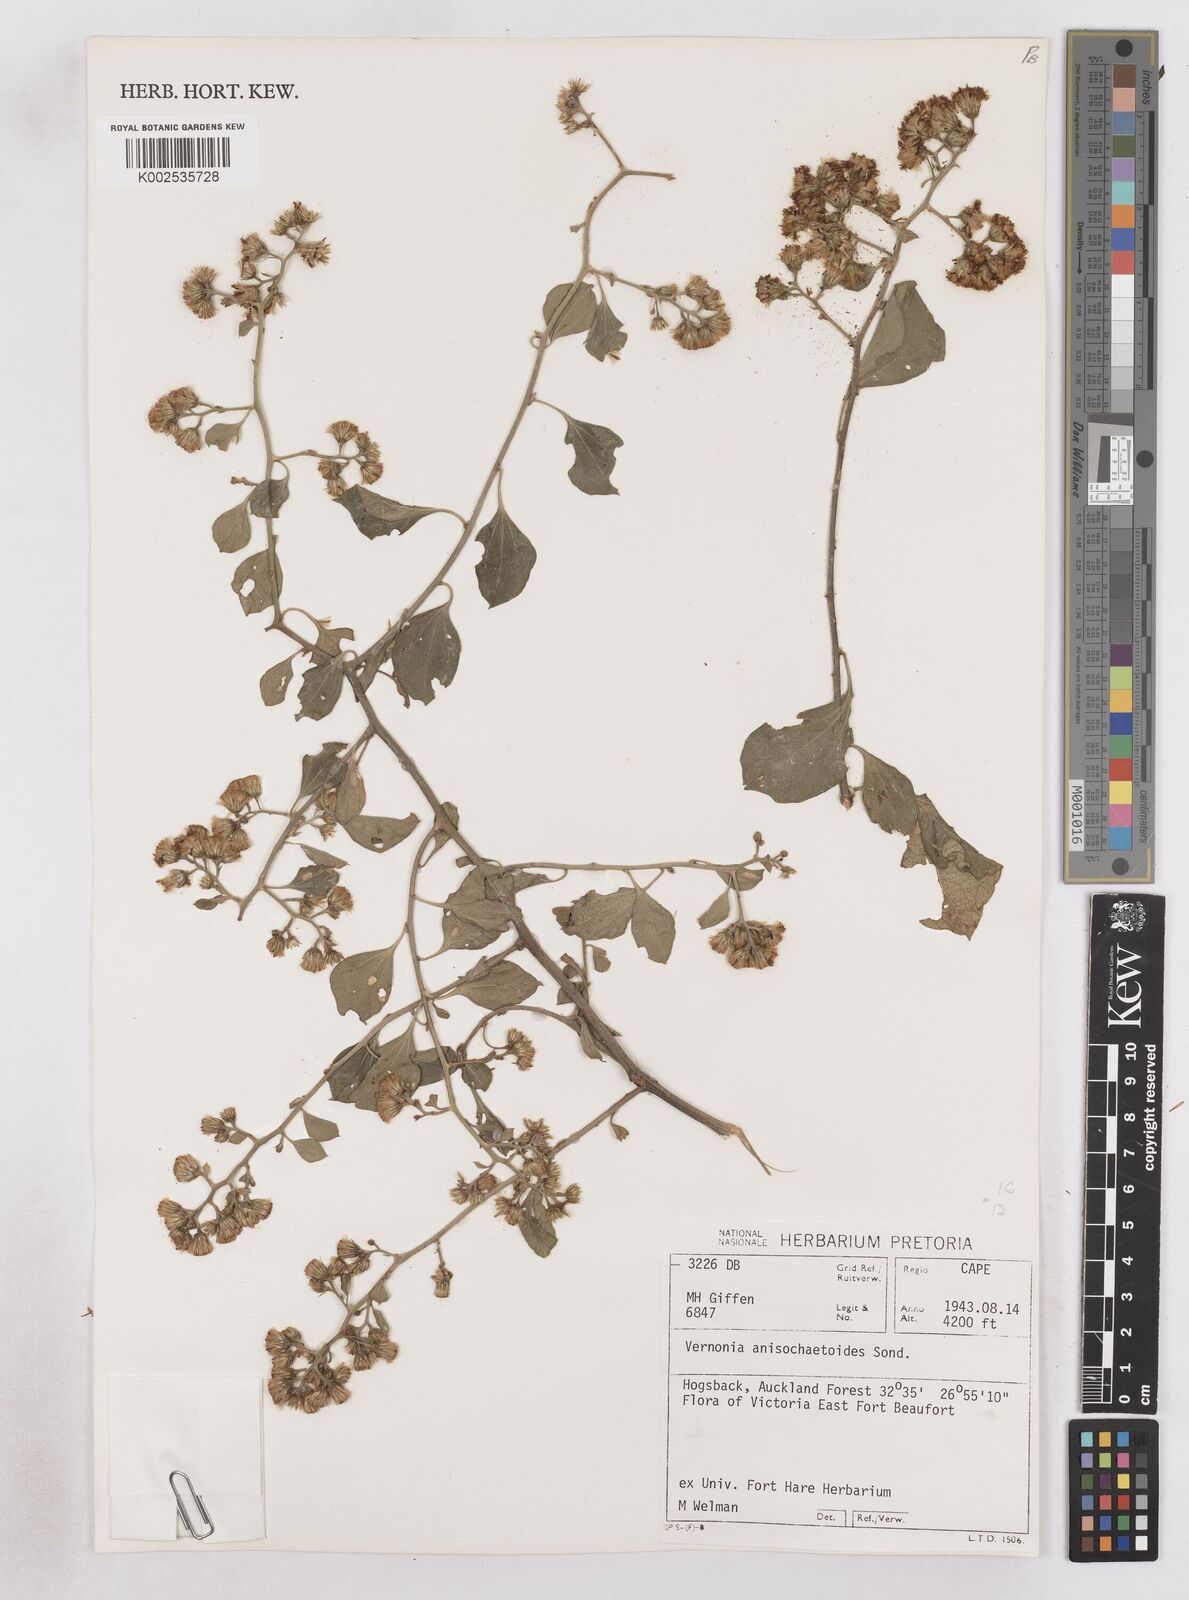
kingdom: Plantae
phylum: Tracheophyta
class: Magnoliopsida
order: Asterales
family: Asteraceae
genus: Distephanus
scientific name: Distephanus anisochaetoides
